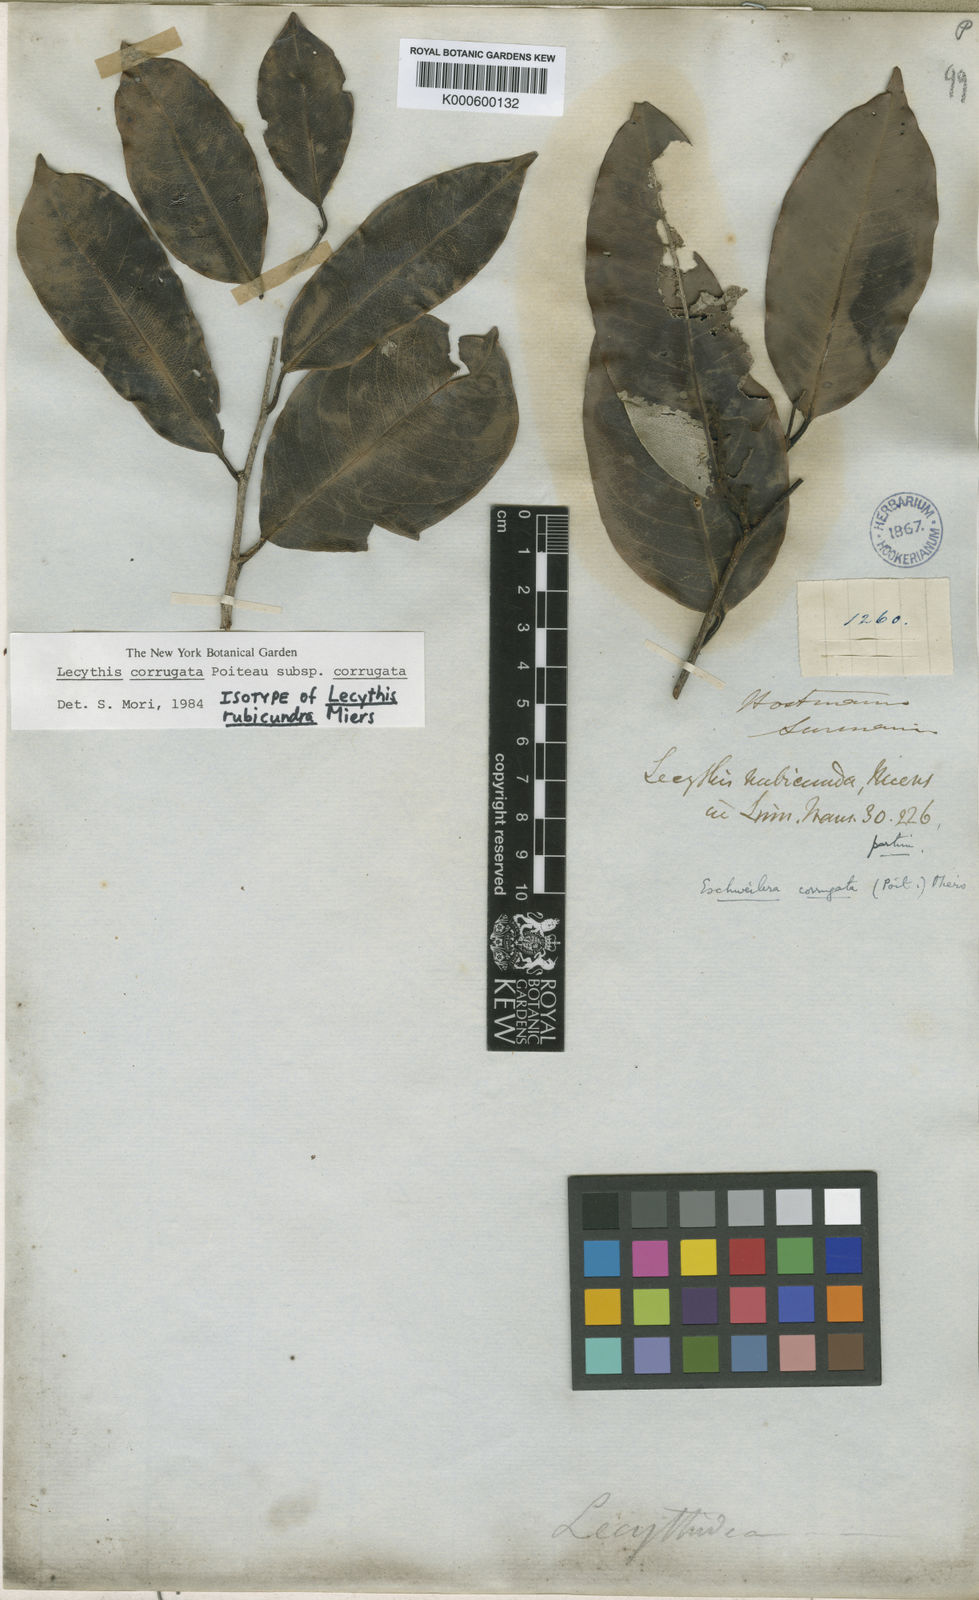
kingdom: Plantae
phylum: Tracheophyta
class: Magnoliopsida
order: Ericales
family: Lecythidaceae
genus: Lecythis
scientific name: Lecythis corrugata
